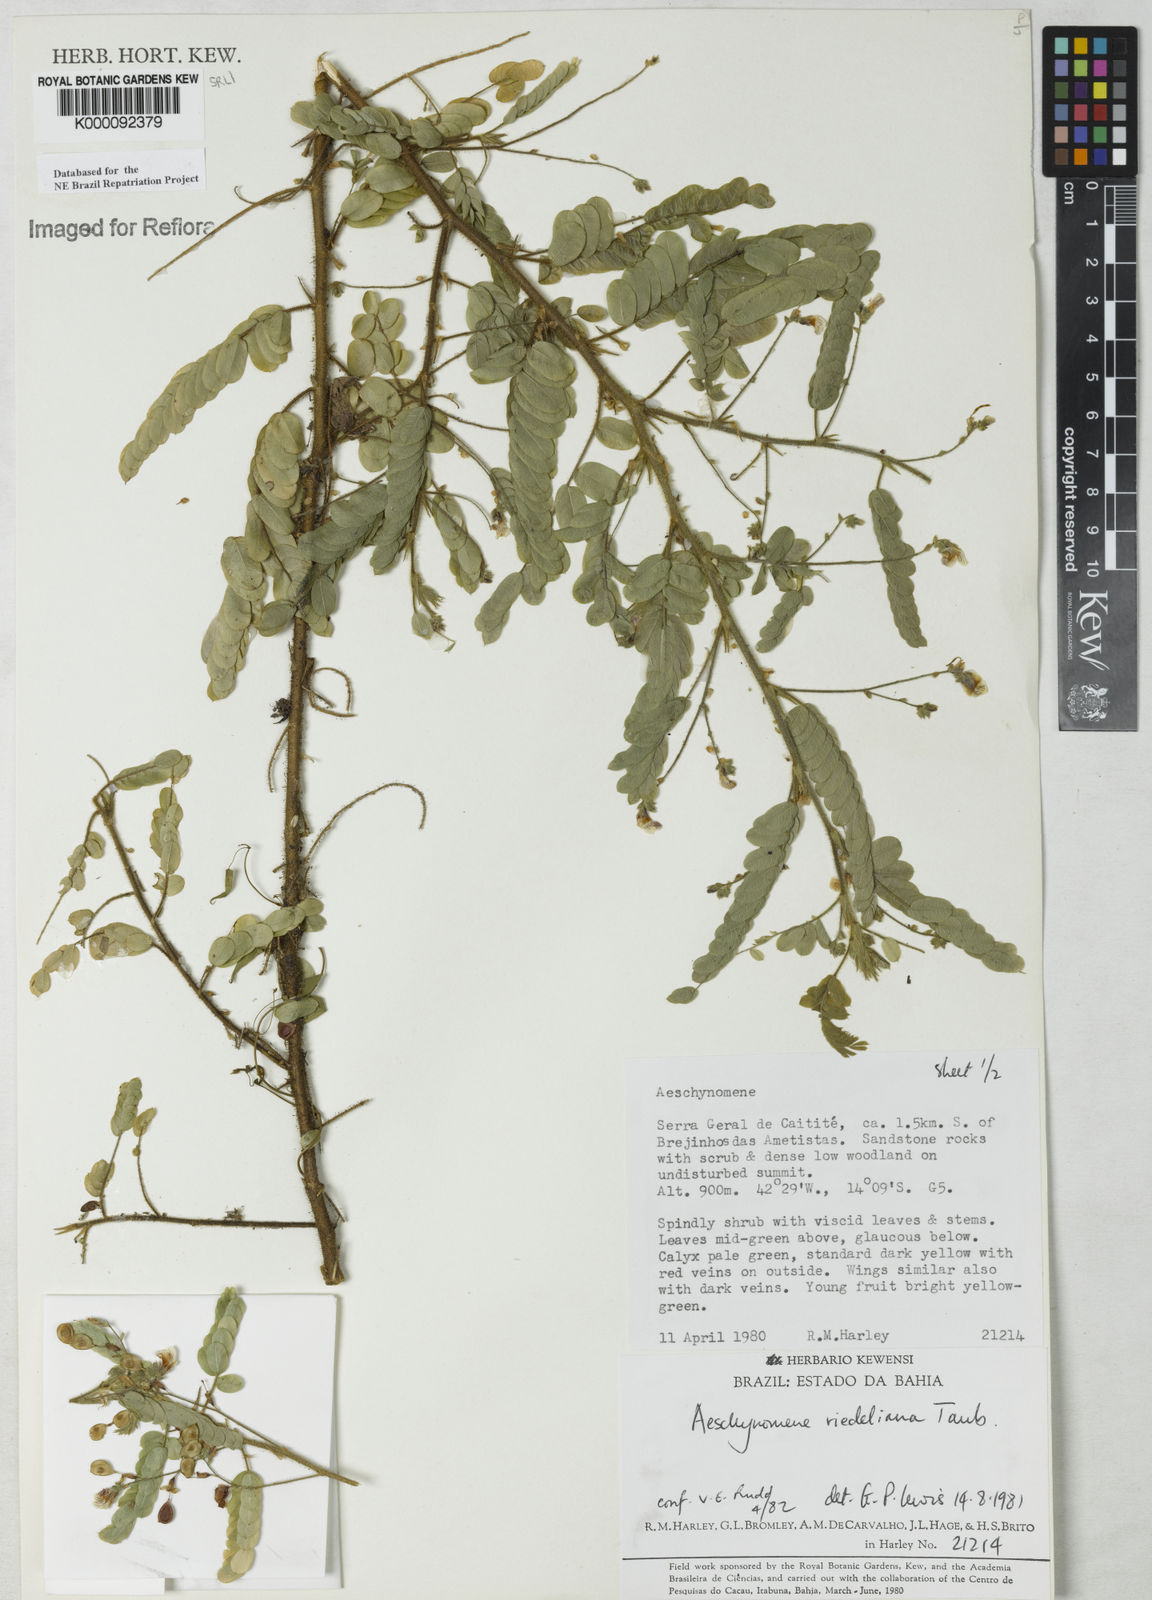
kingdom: Plantae
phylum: Tracheophyta
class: Magnoliopsida
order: Fabales
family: Fabaceae
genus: Ctenodon
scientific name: Ctenodon riedelianus
